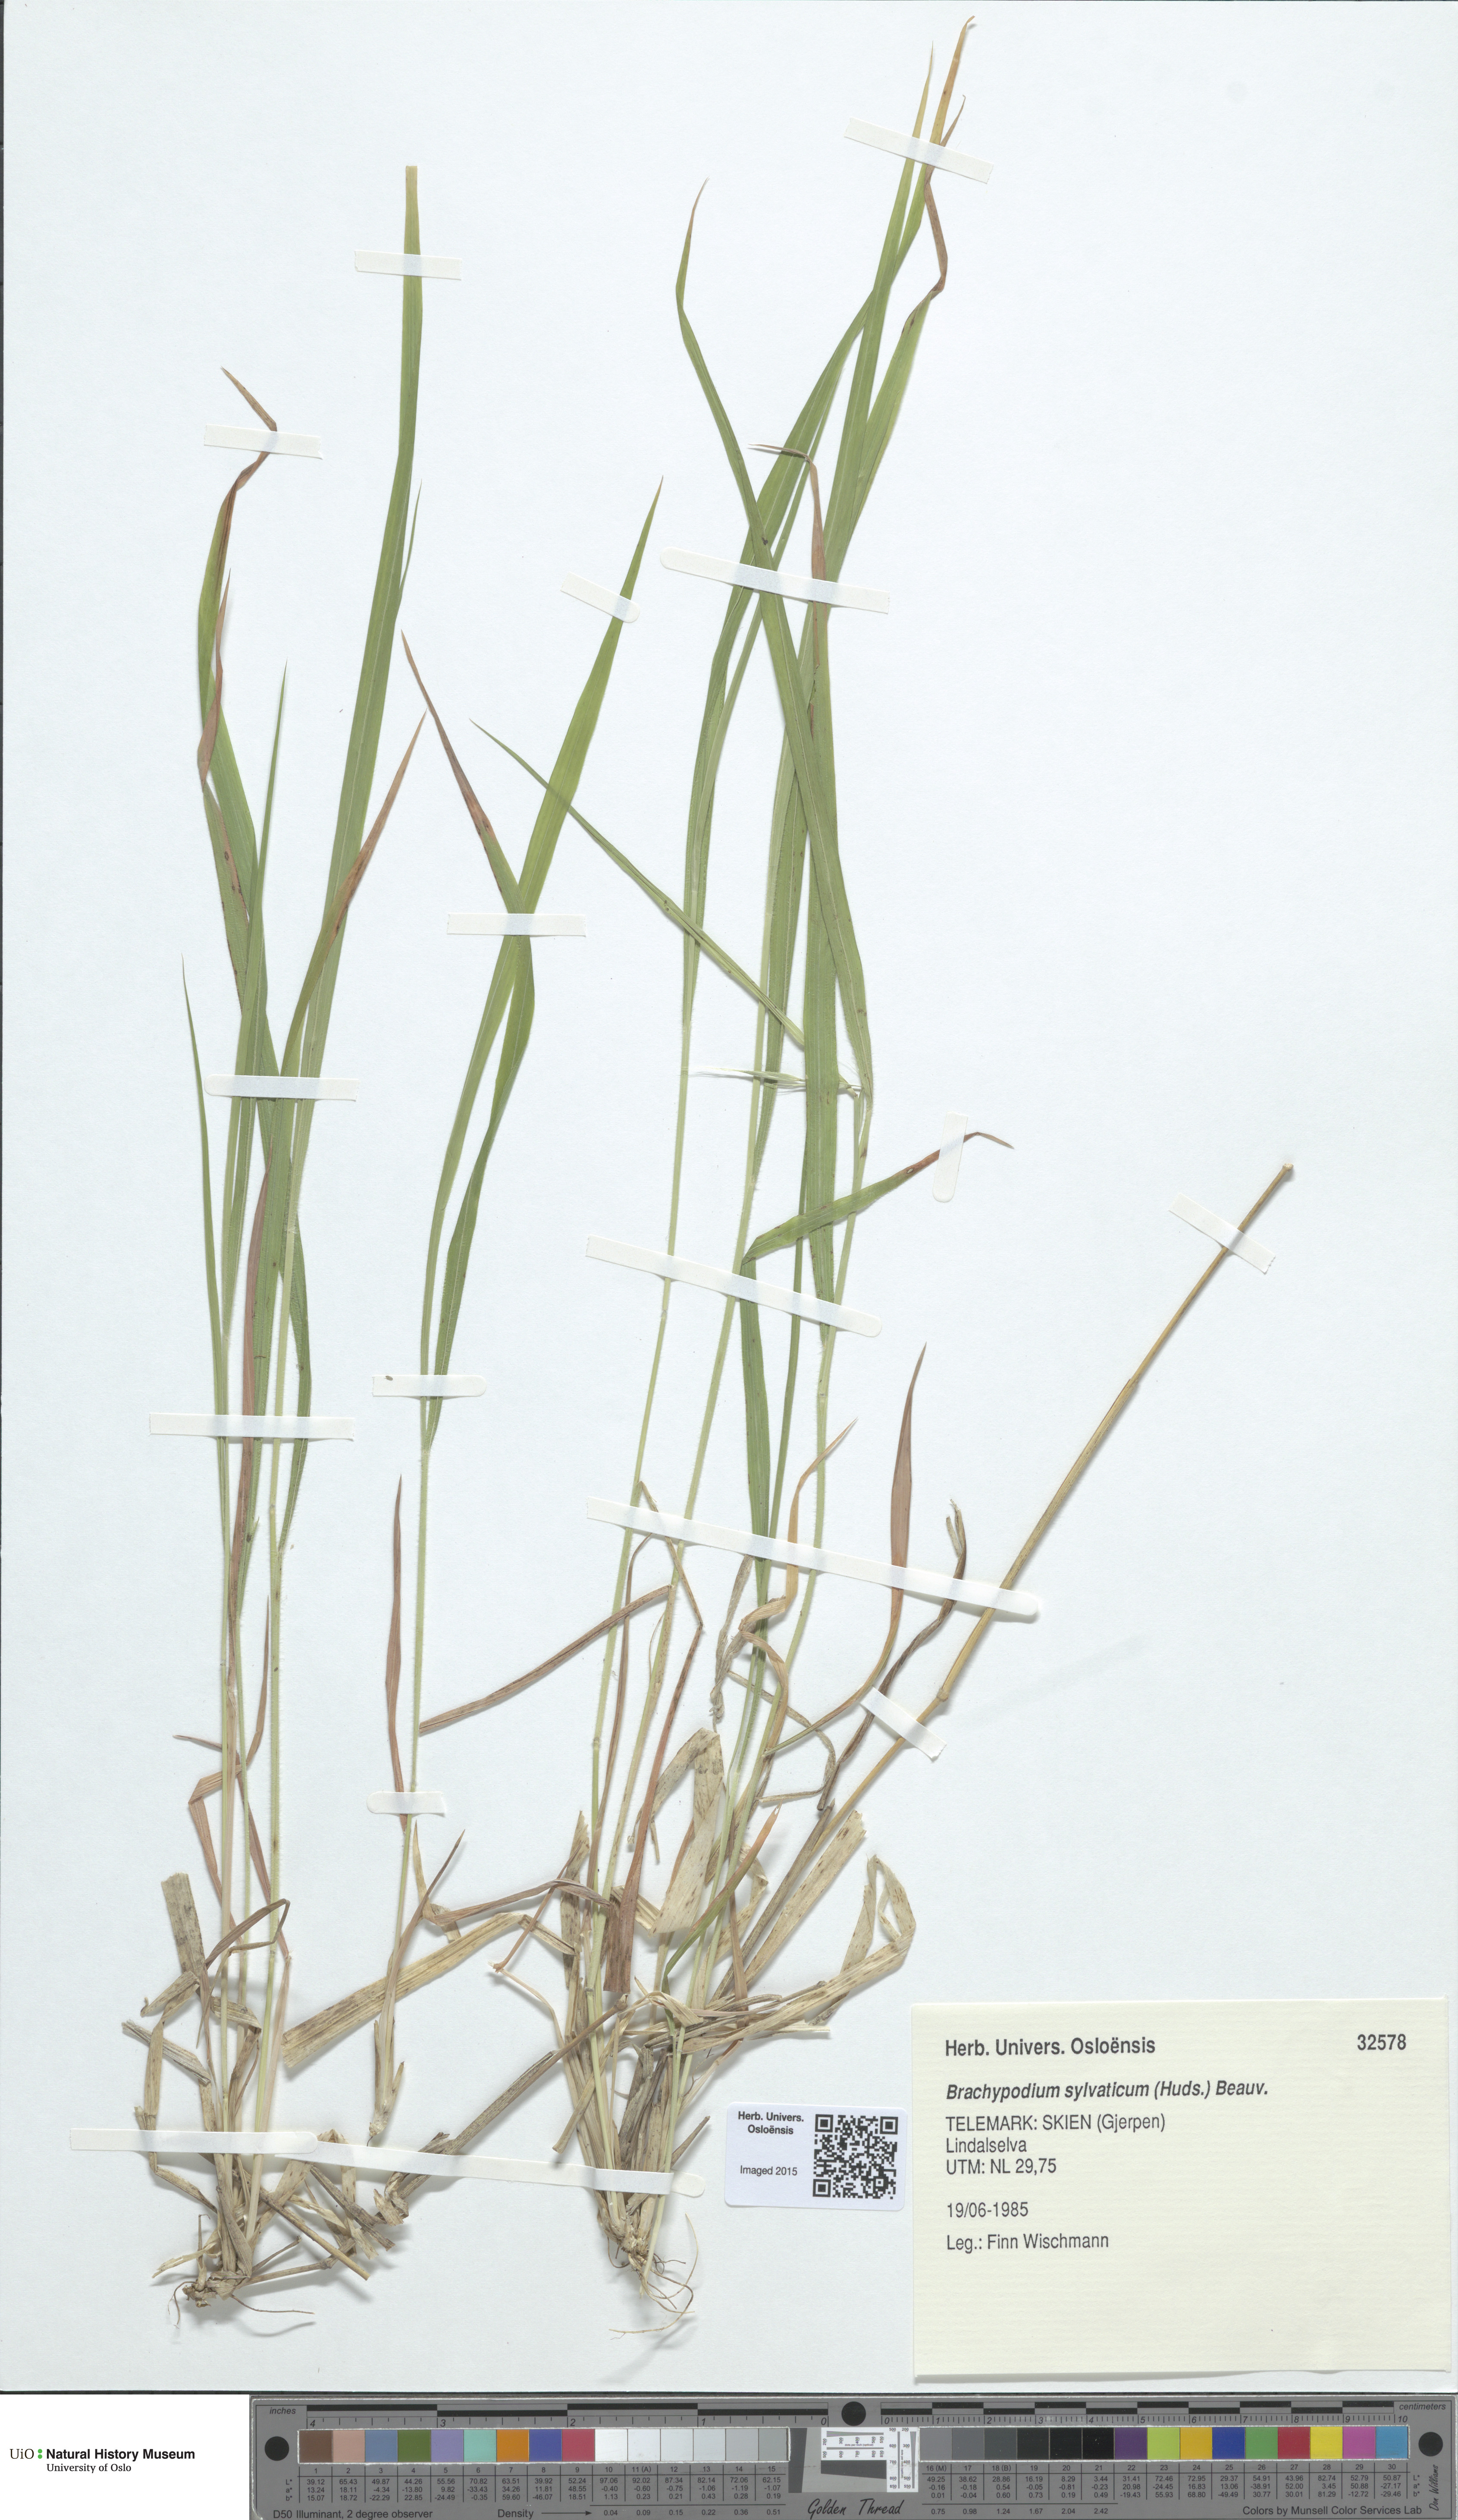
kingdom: Plantae
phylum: Tracheophyta
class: Liliopsida
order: Poales
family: Poaceae
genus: Brachypodium
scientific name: Brachypodium sylvaticum
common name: False-brome
